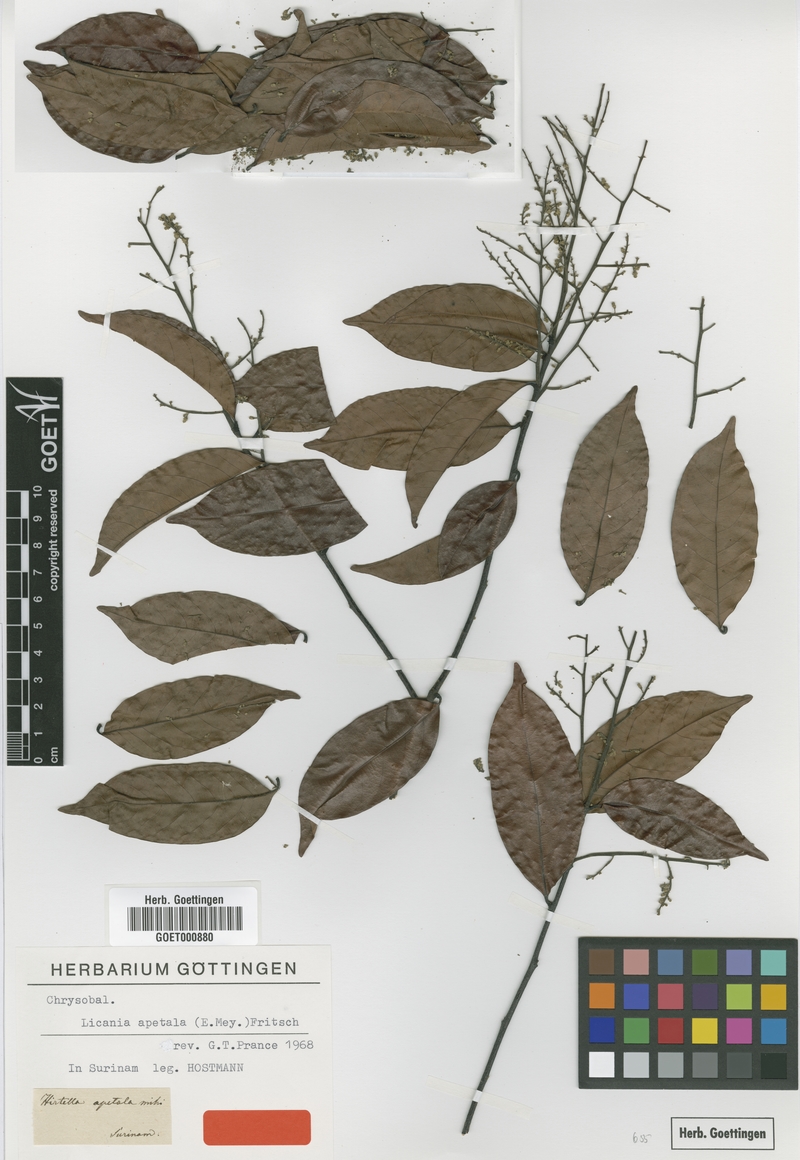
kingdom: Plantae
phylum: Tracheophyta
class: Magnoliopsida
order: Malpighiales
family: Chrysobalanaceae
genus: Leptobalanus
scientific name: Leptobalanus apetalus
